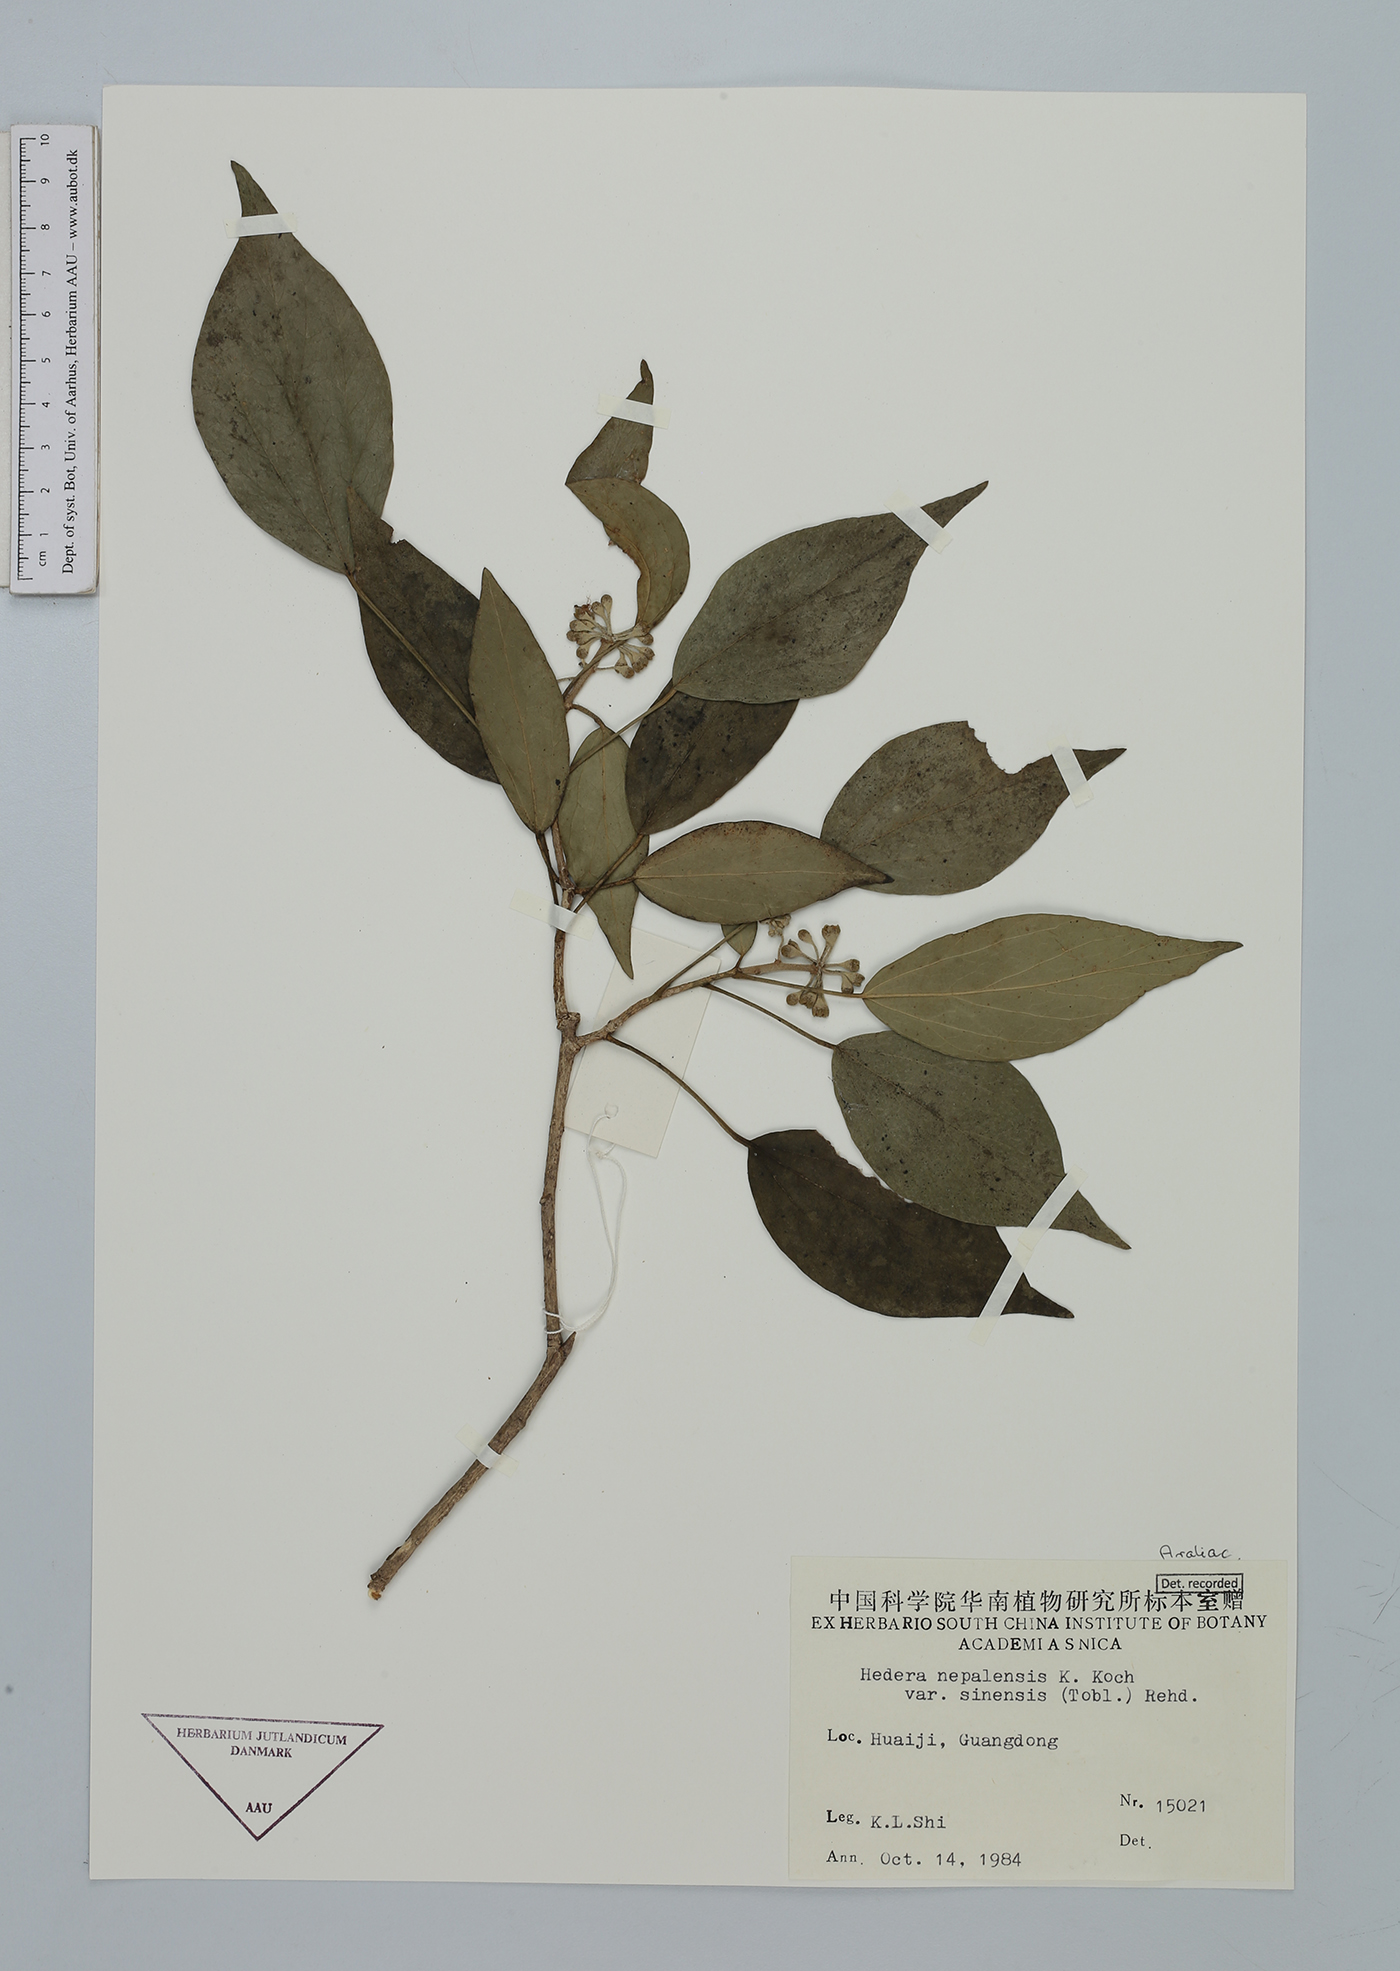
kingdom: Plantae
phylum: Tracheophyta
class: Magnoliopsida
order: Apiales
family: Araliaceae
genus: Hedera
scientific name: Hedera nepalensis
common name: Himalayan ivy
